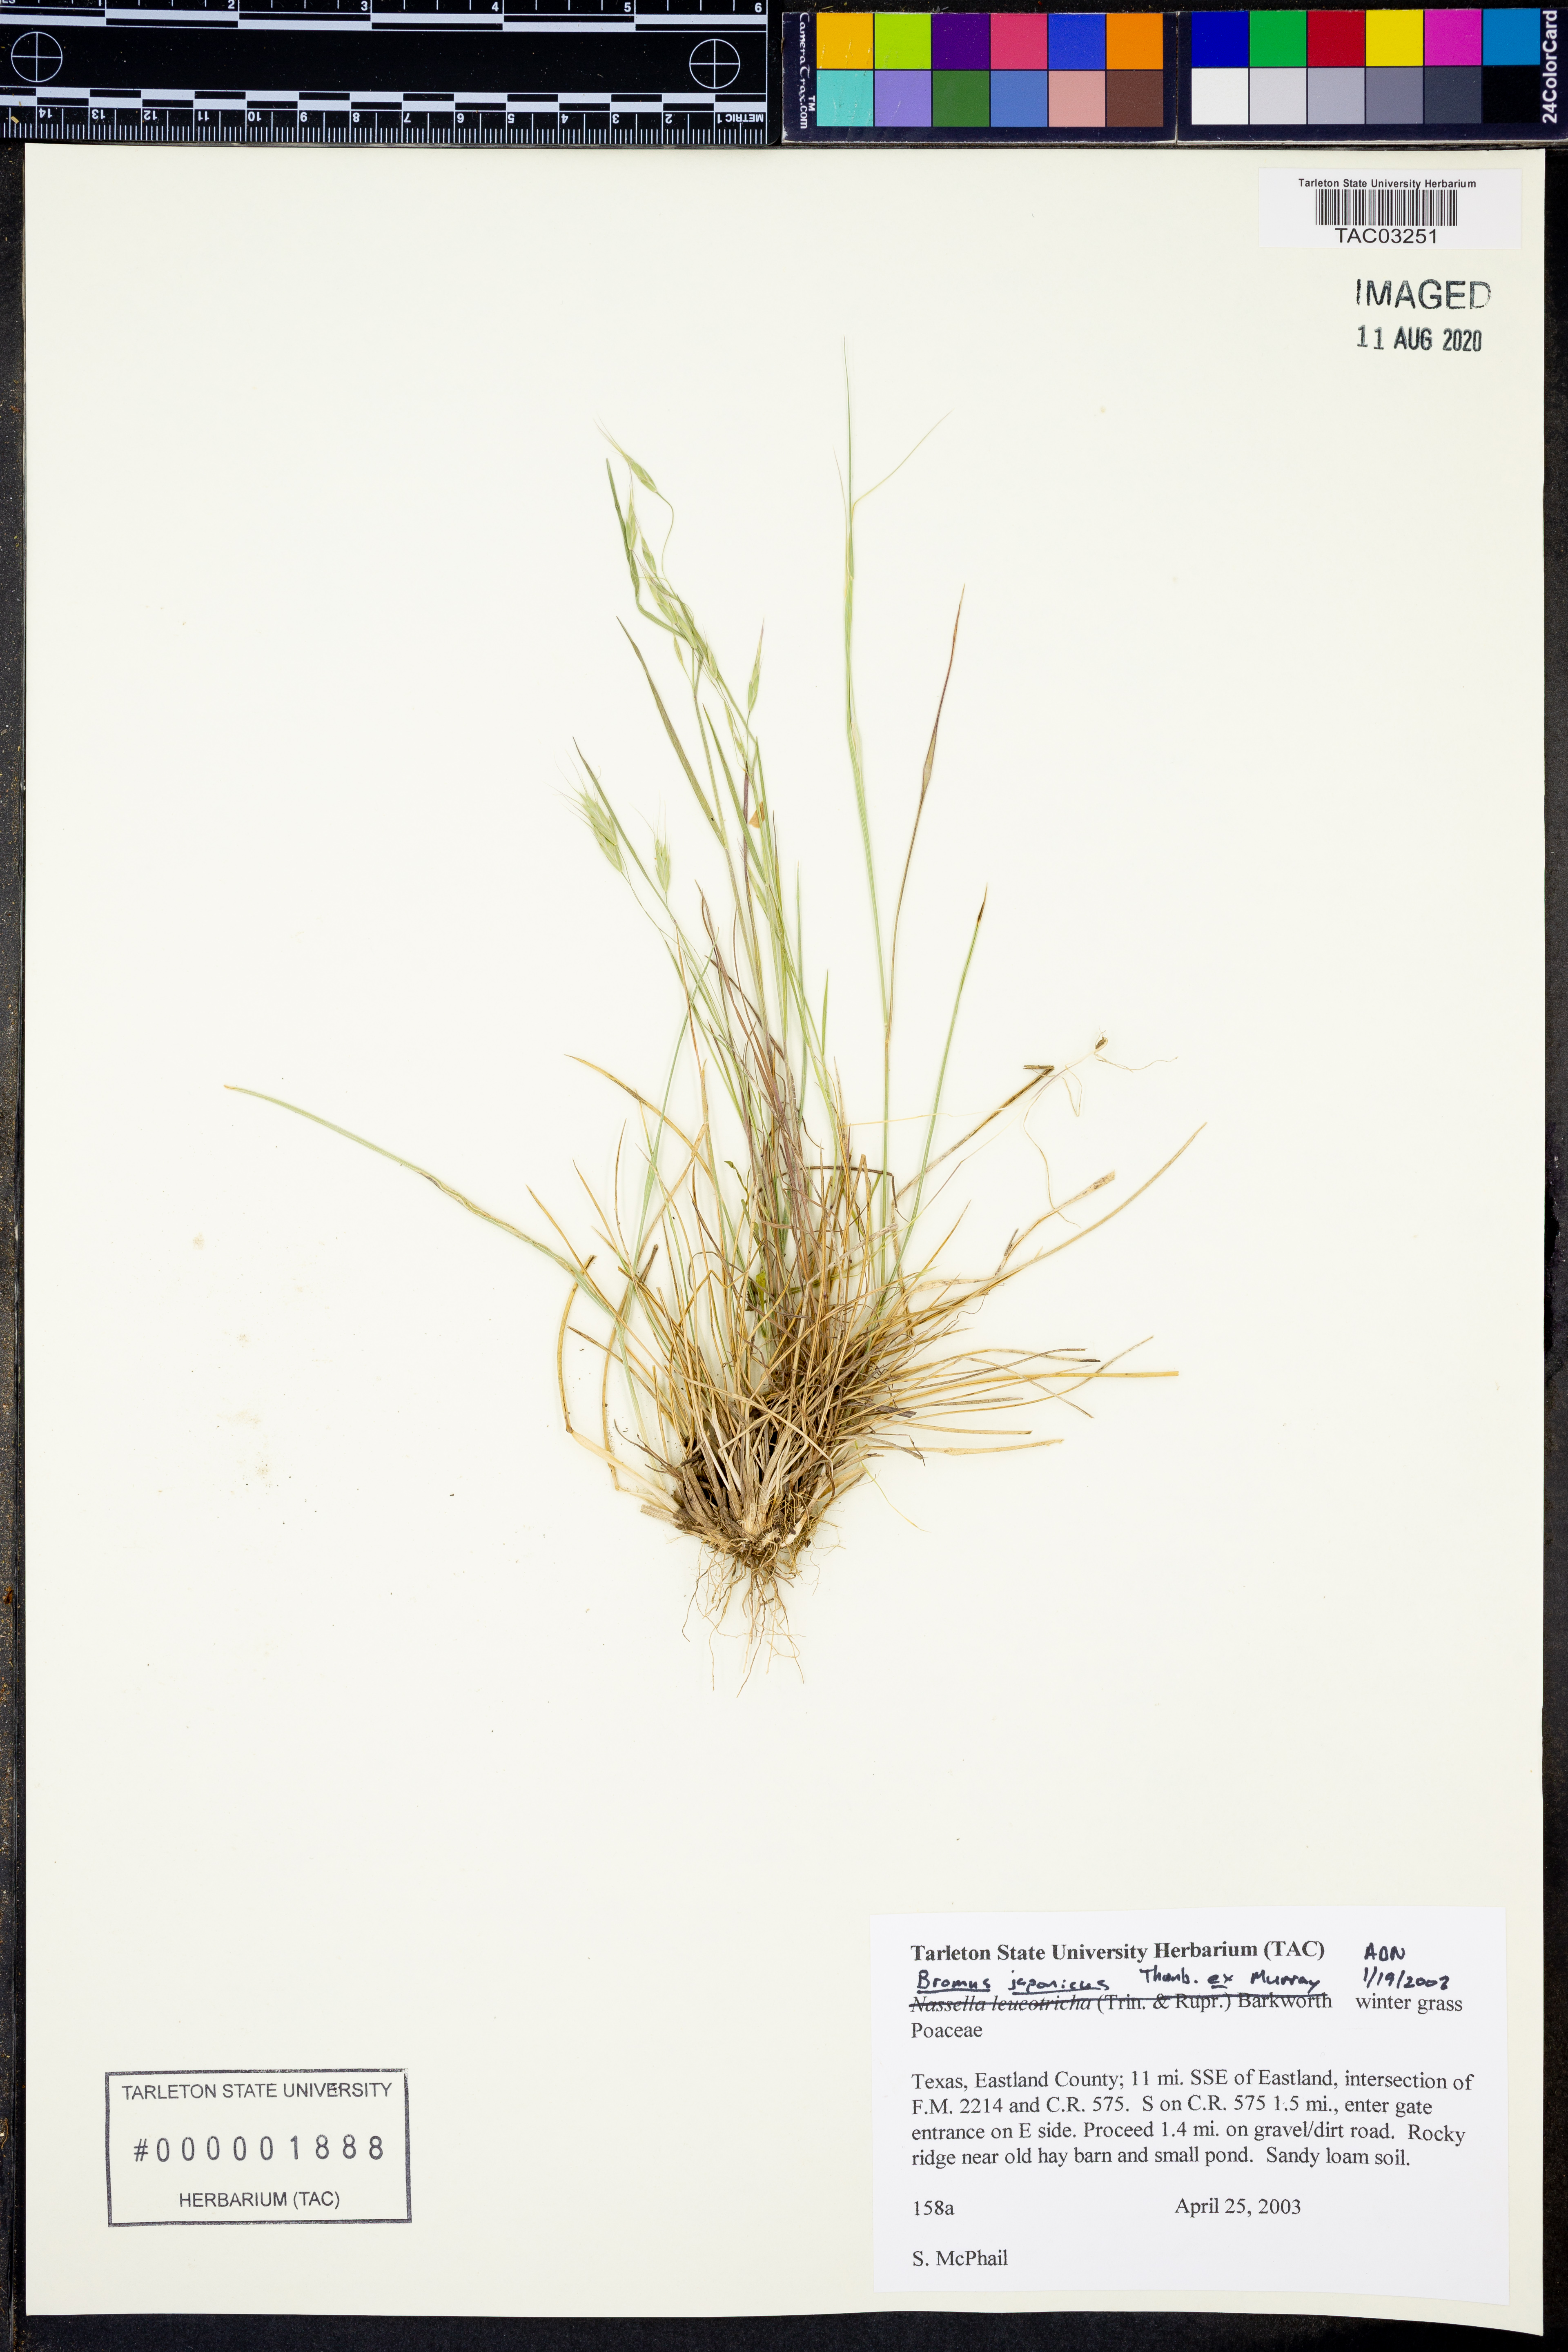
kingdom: Plantae
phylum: Tracheophyta
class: Liliopsida
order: Poales
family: Poaceae
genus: Bromus
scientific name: Bromus japonicus
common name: Japanese brome
